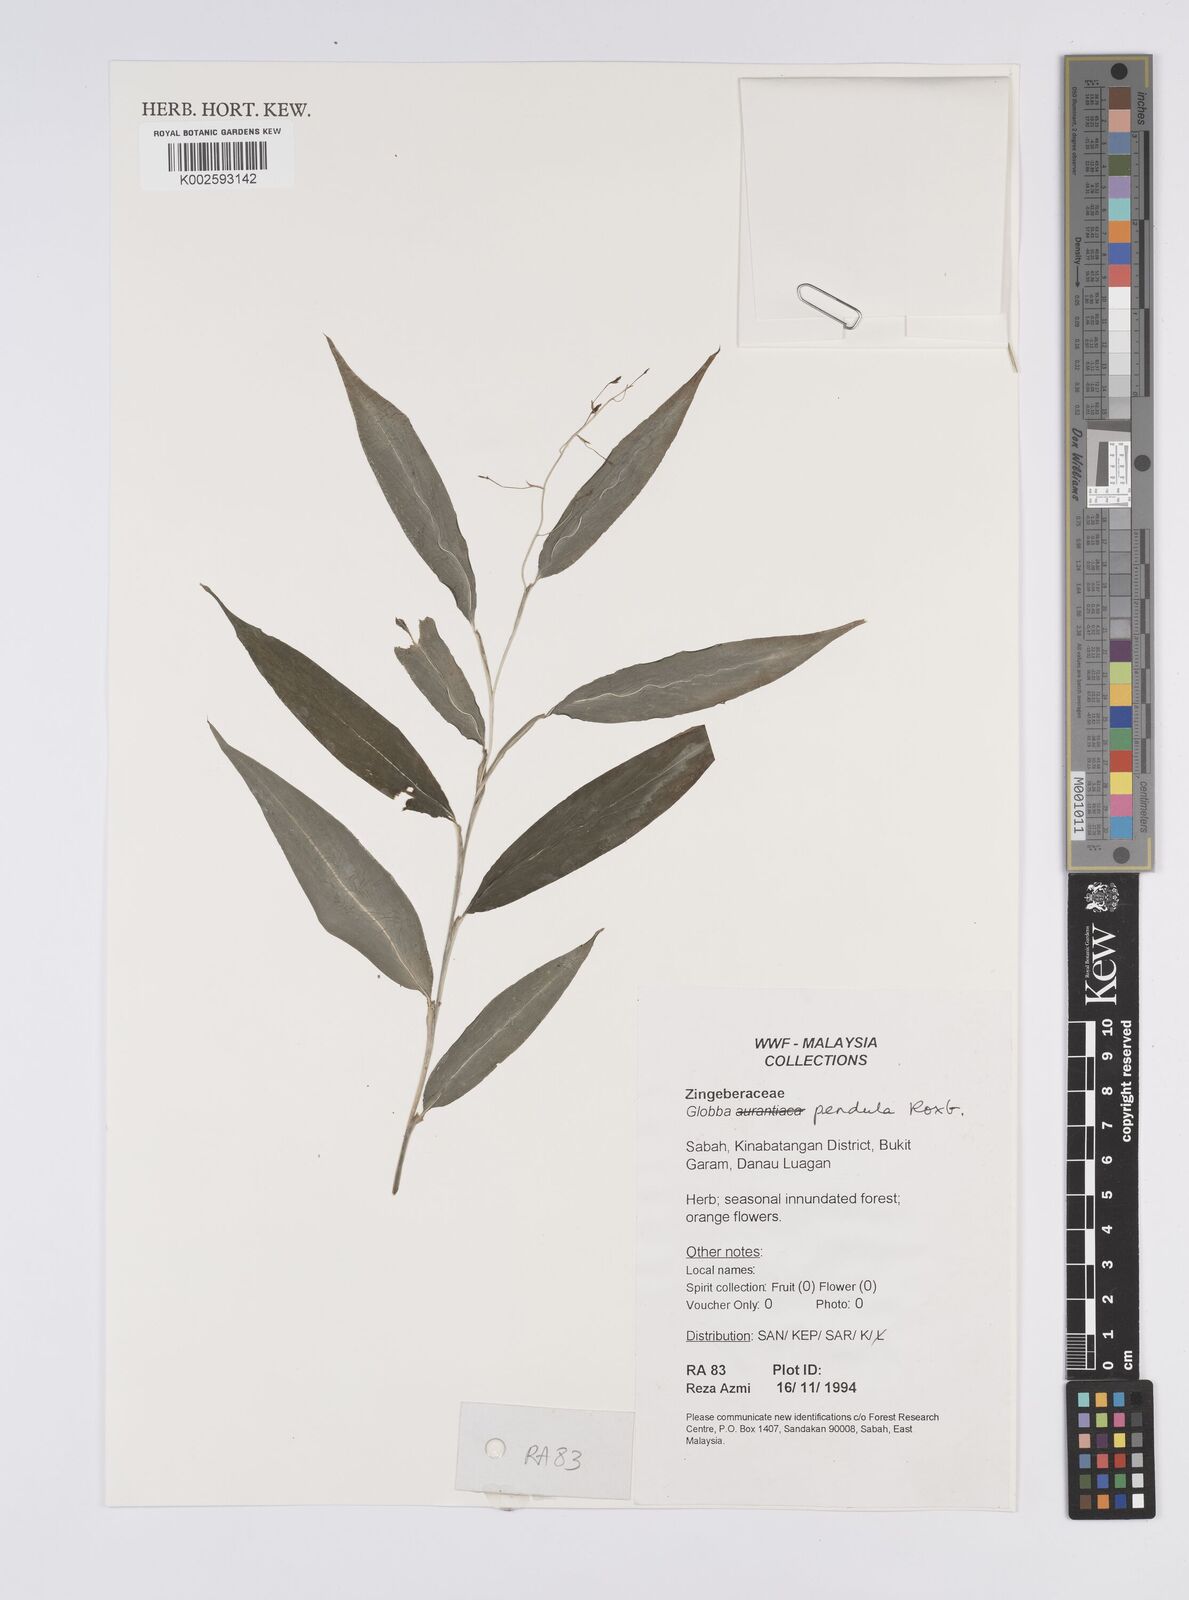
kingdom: Plantae
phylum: Tracheophyta
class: Liliopsida
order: Zingiberales
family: Zingiberaceae
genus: Globba
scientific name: Globba pendula
